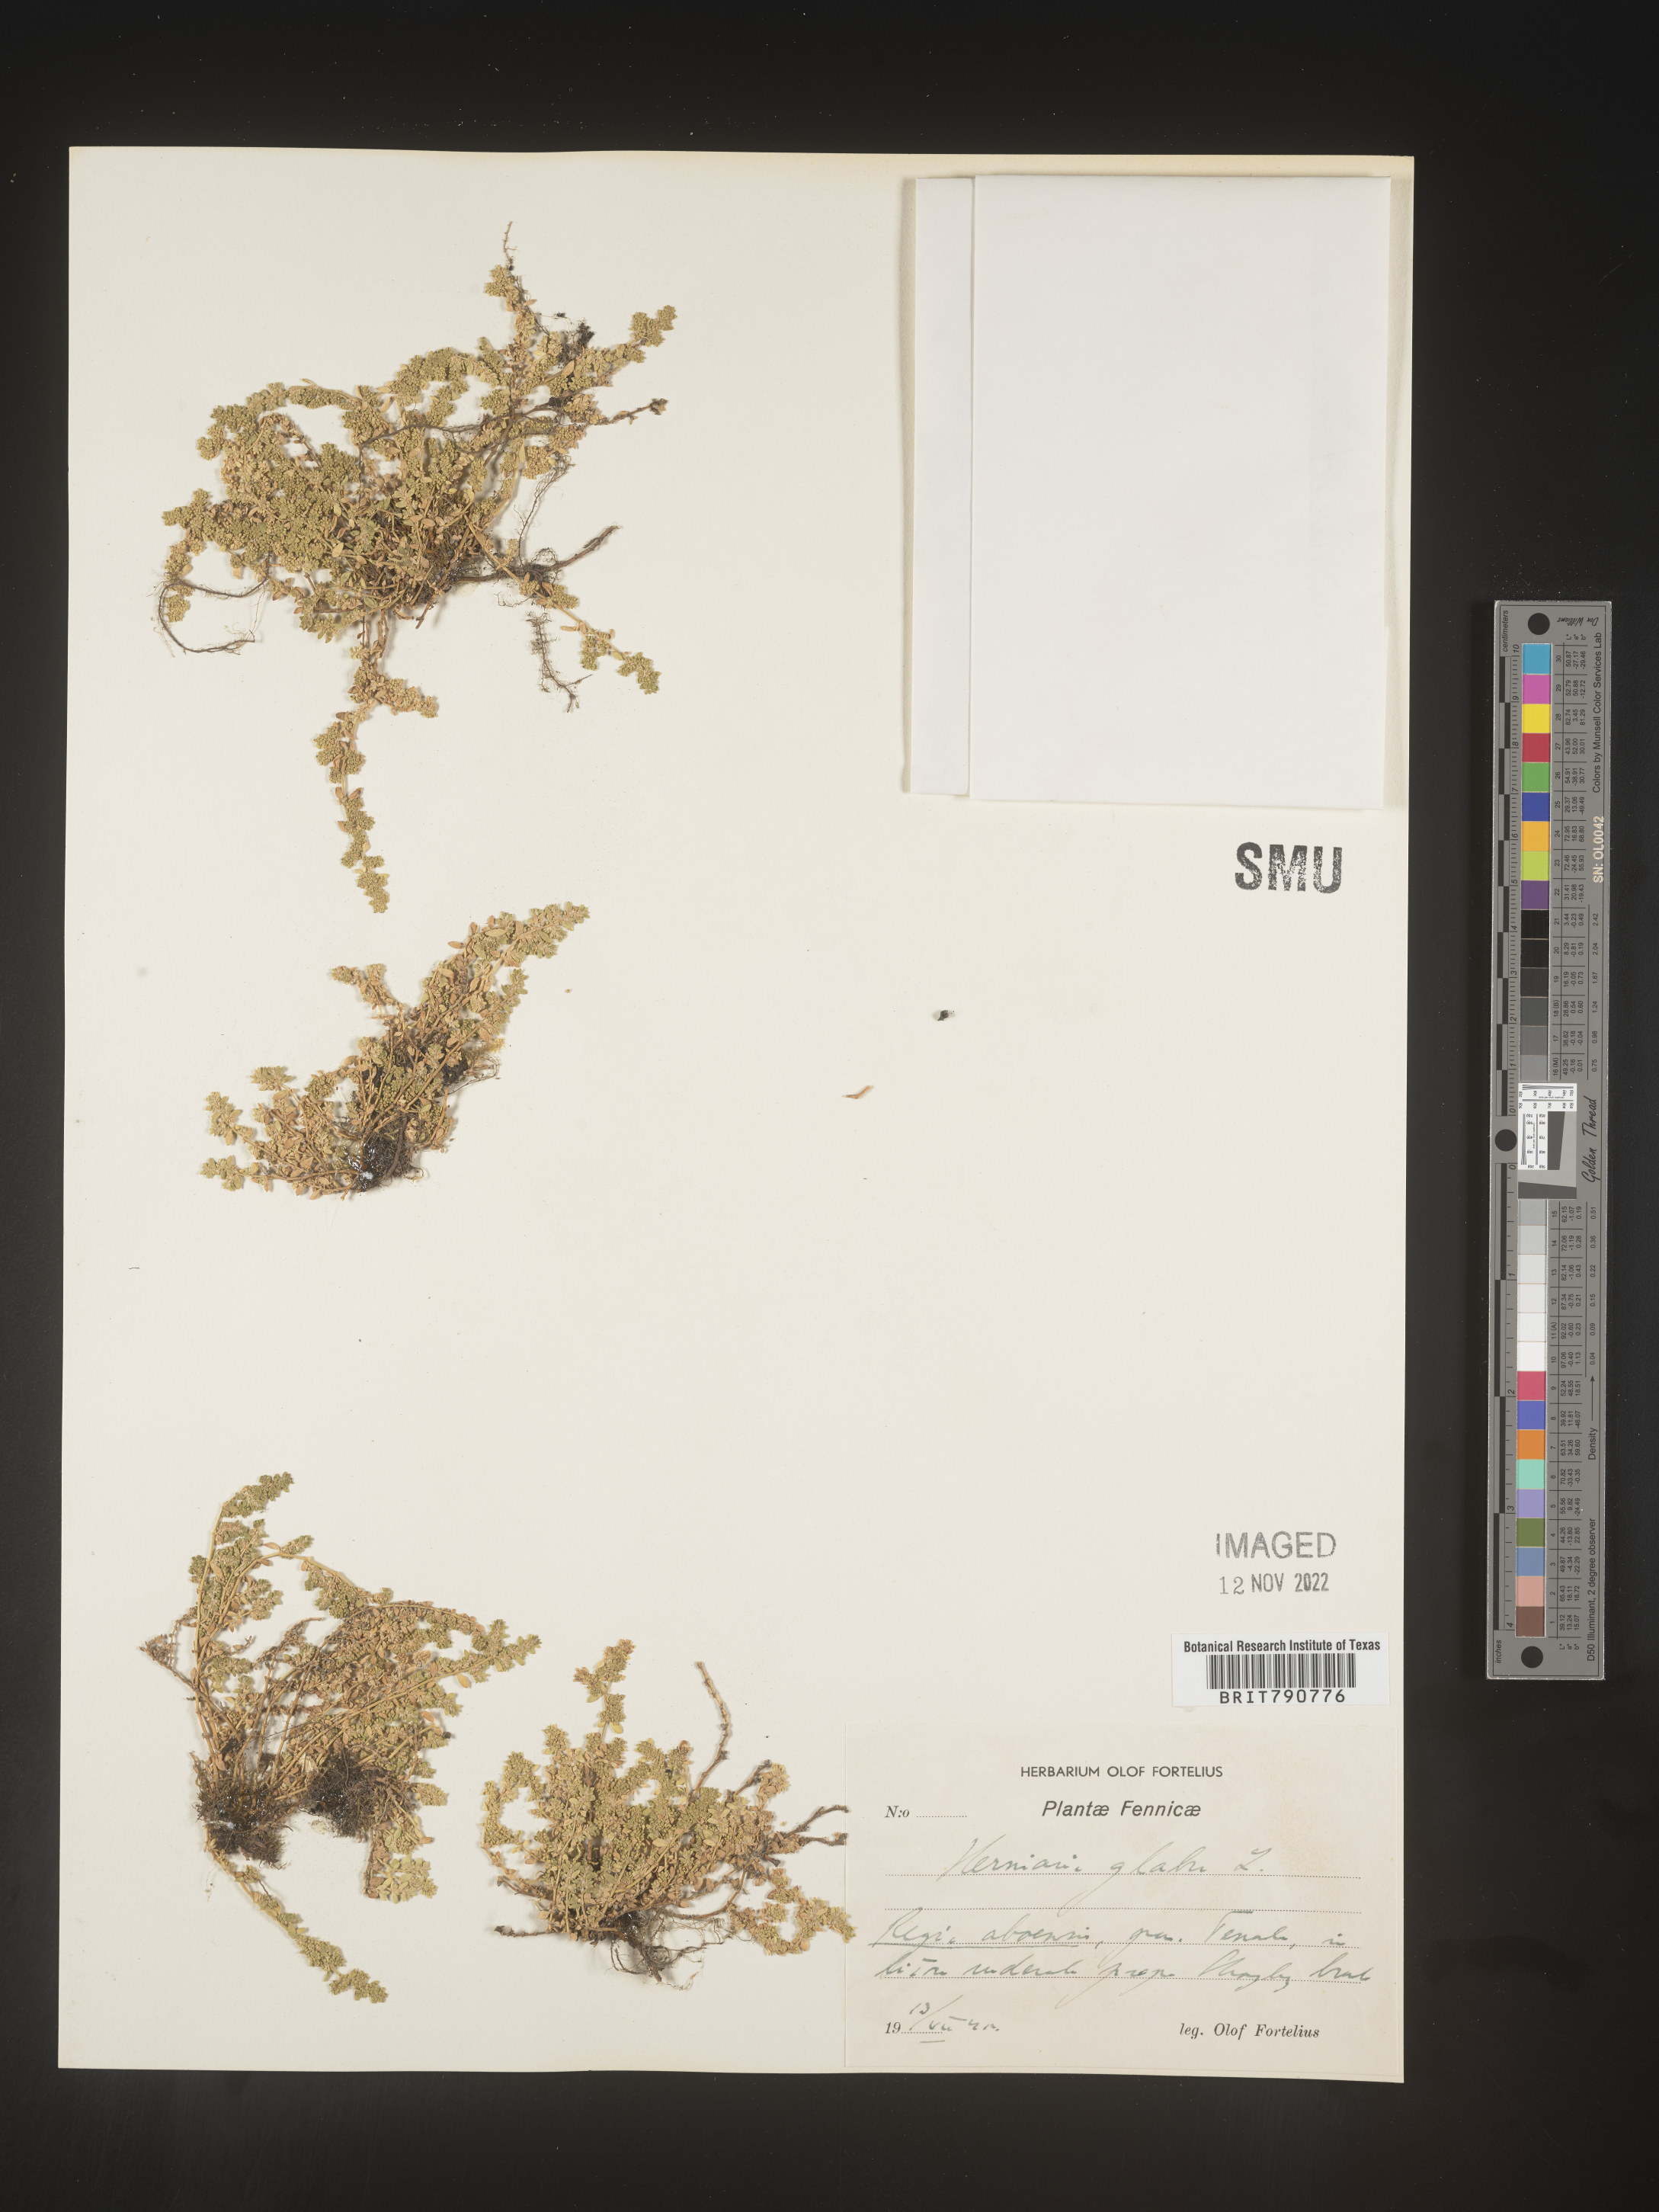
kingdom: Plantae
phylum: Tracheophyta
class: Magnoliopsida
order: Caryophyllales
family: Caryophyllaceae
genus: Herniaria
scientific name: Herniaria
